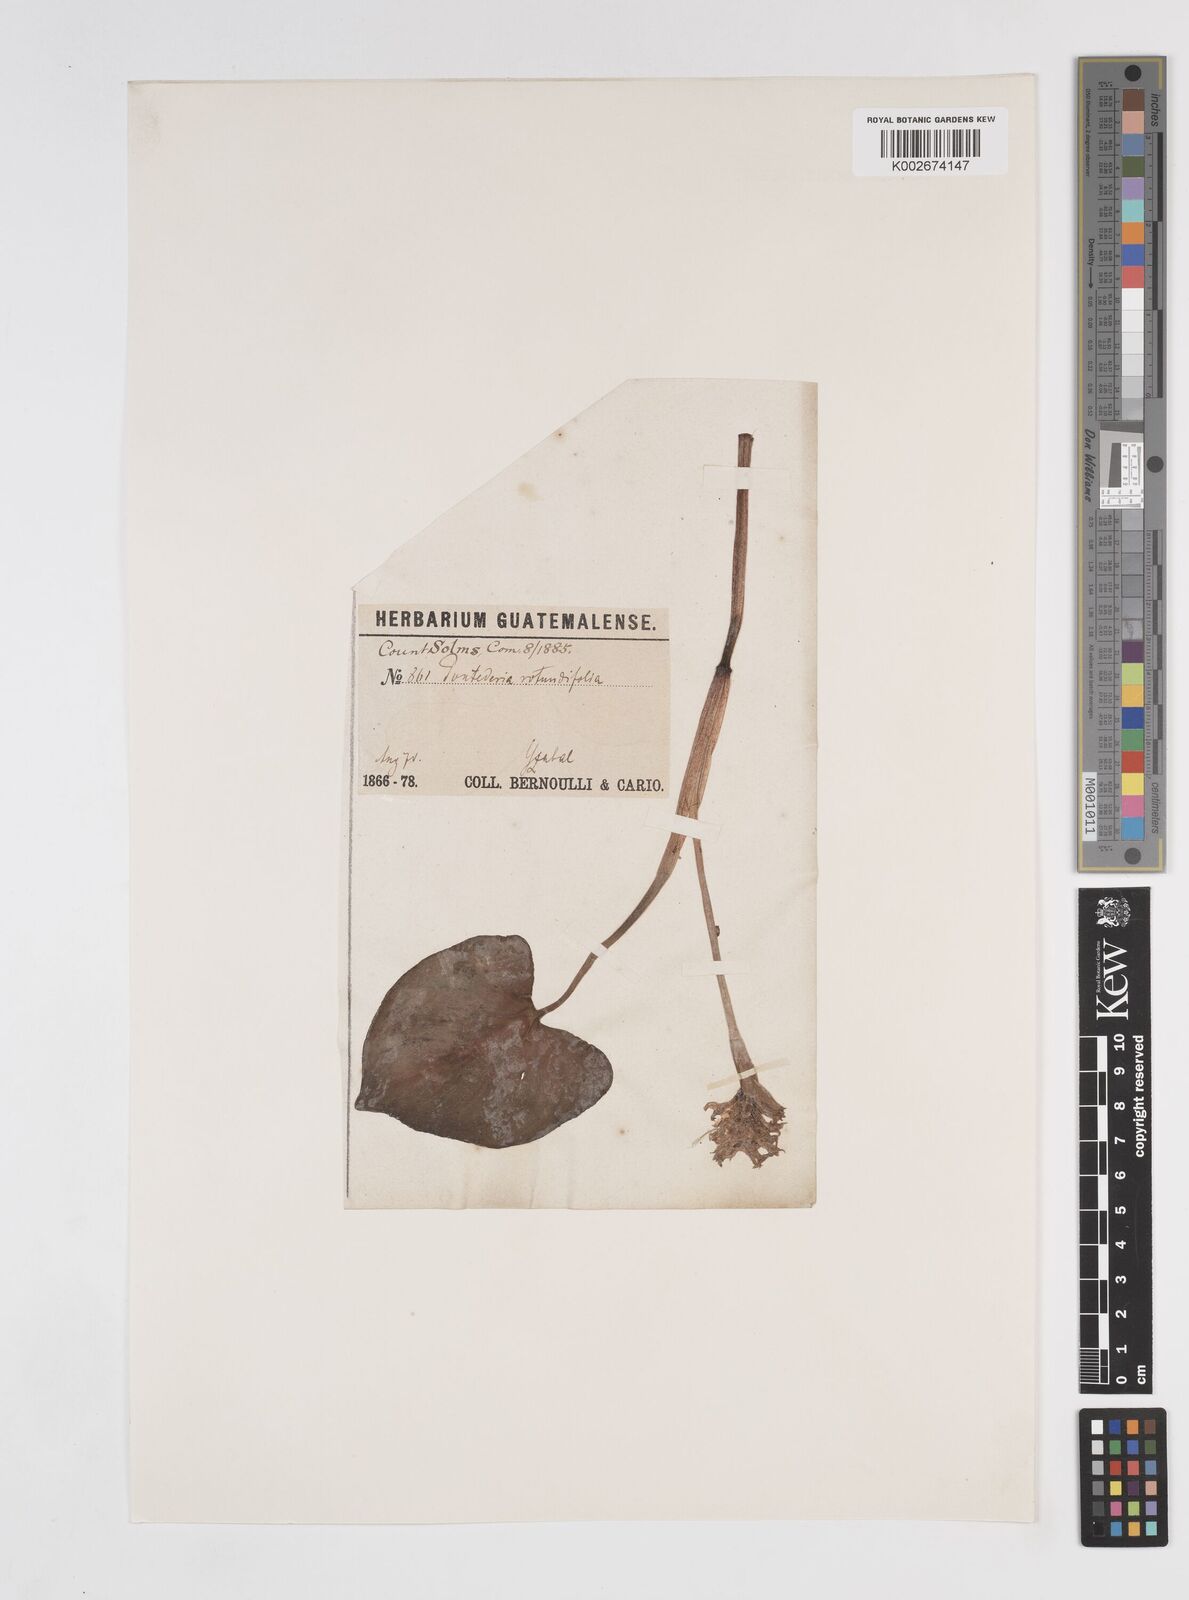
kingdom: Plantae
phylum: Tracheophyta
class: Liliopsida
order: Commelinales
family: Pontederiaceae
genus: Pontederia
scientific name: Pontederia rotundifolia
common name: Tropical pickerel-weed
